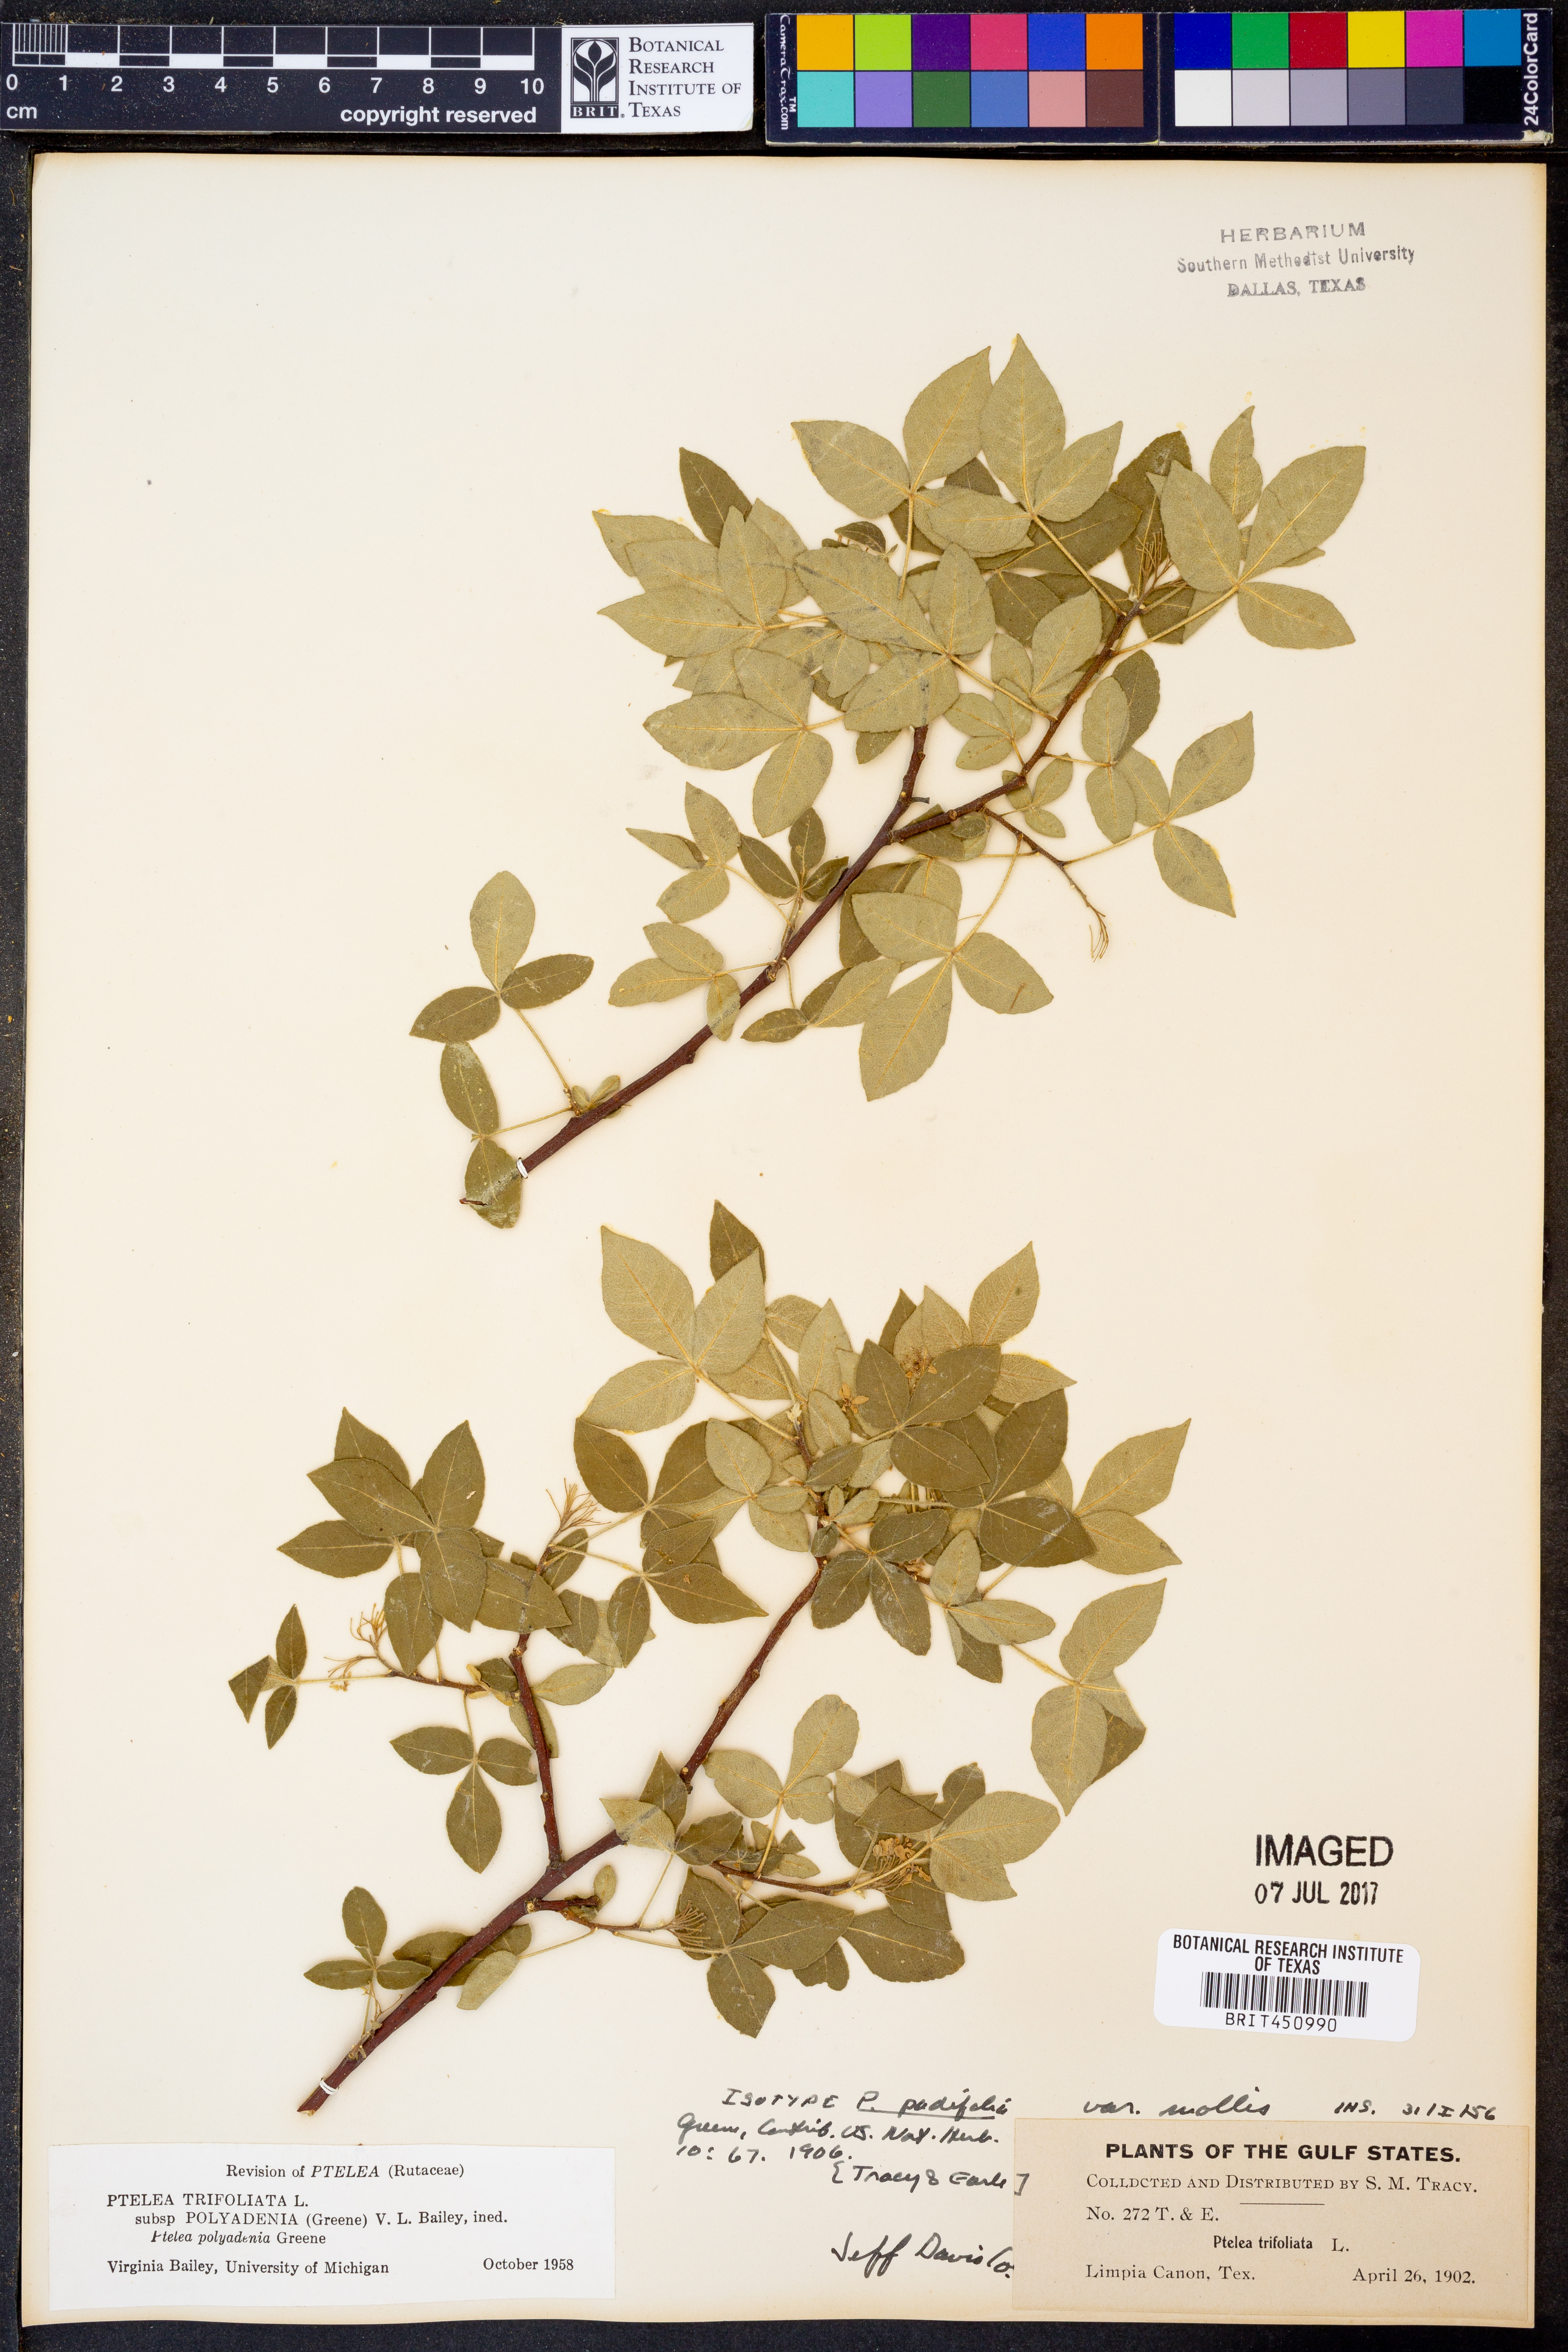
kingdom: Plantae
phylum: Tracheophyta
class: Magnoliopsida
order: Sapindales
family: Rutaceae
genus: Ptelea
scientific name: Ptelea trifoliata
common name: Common hop-tree
